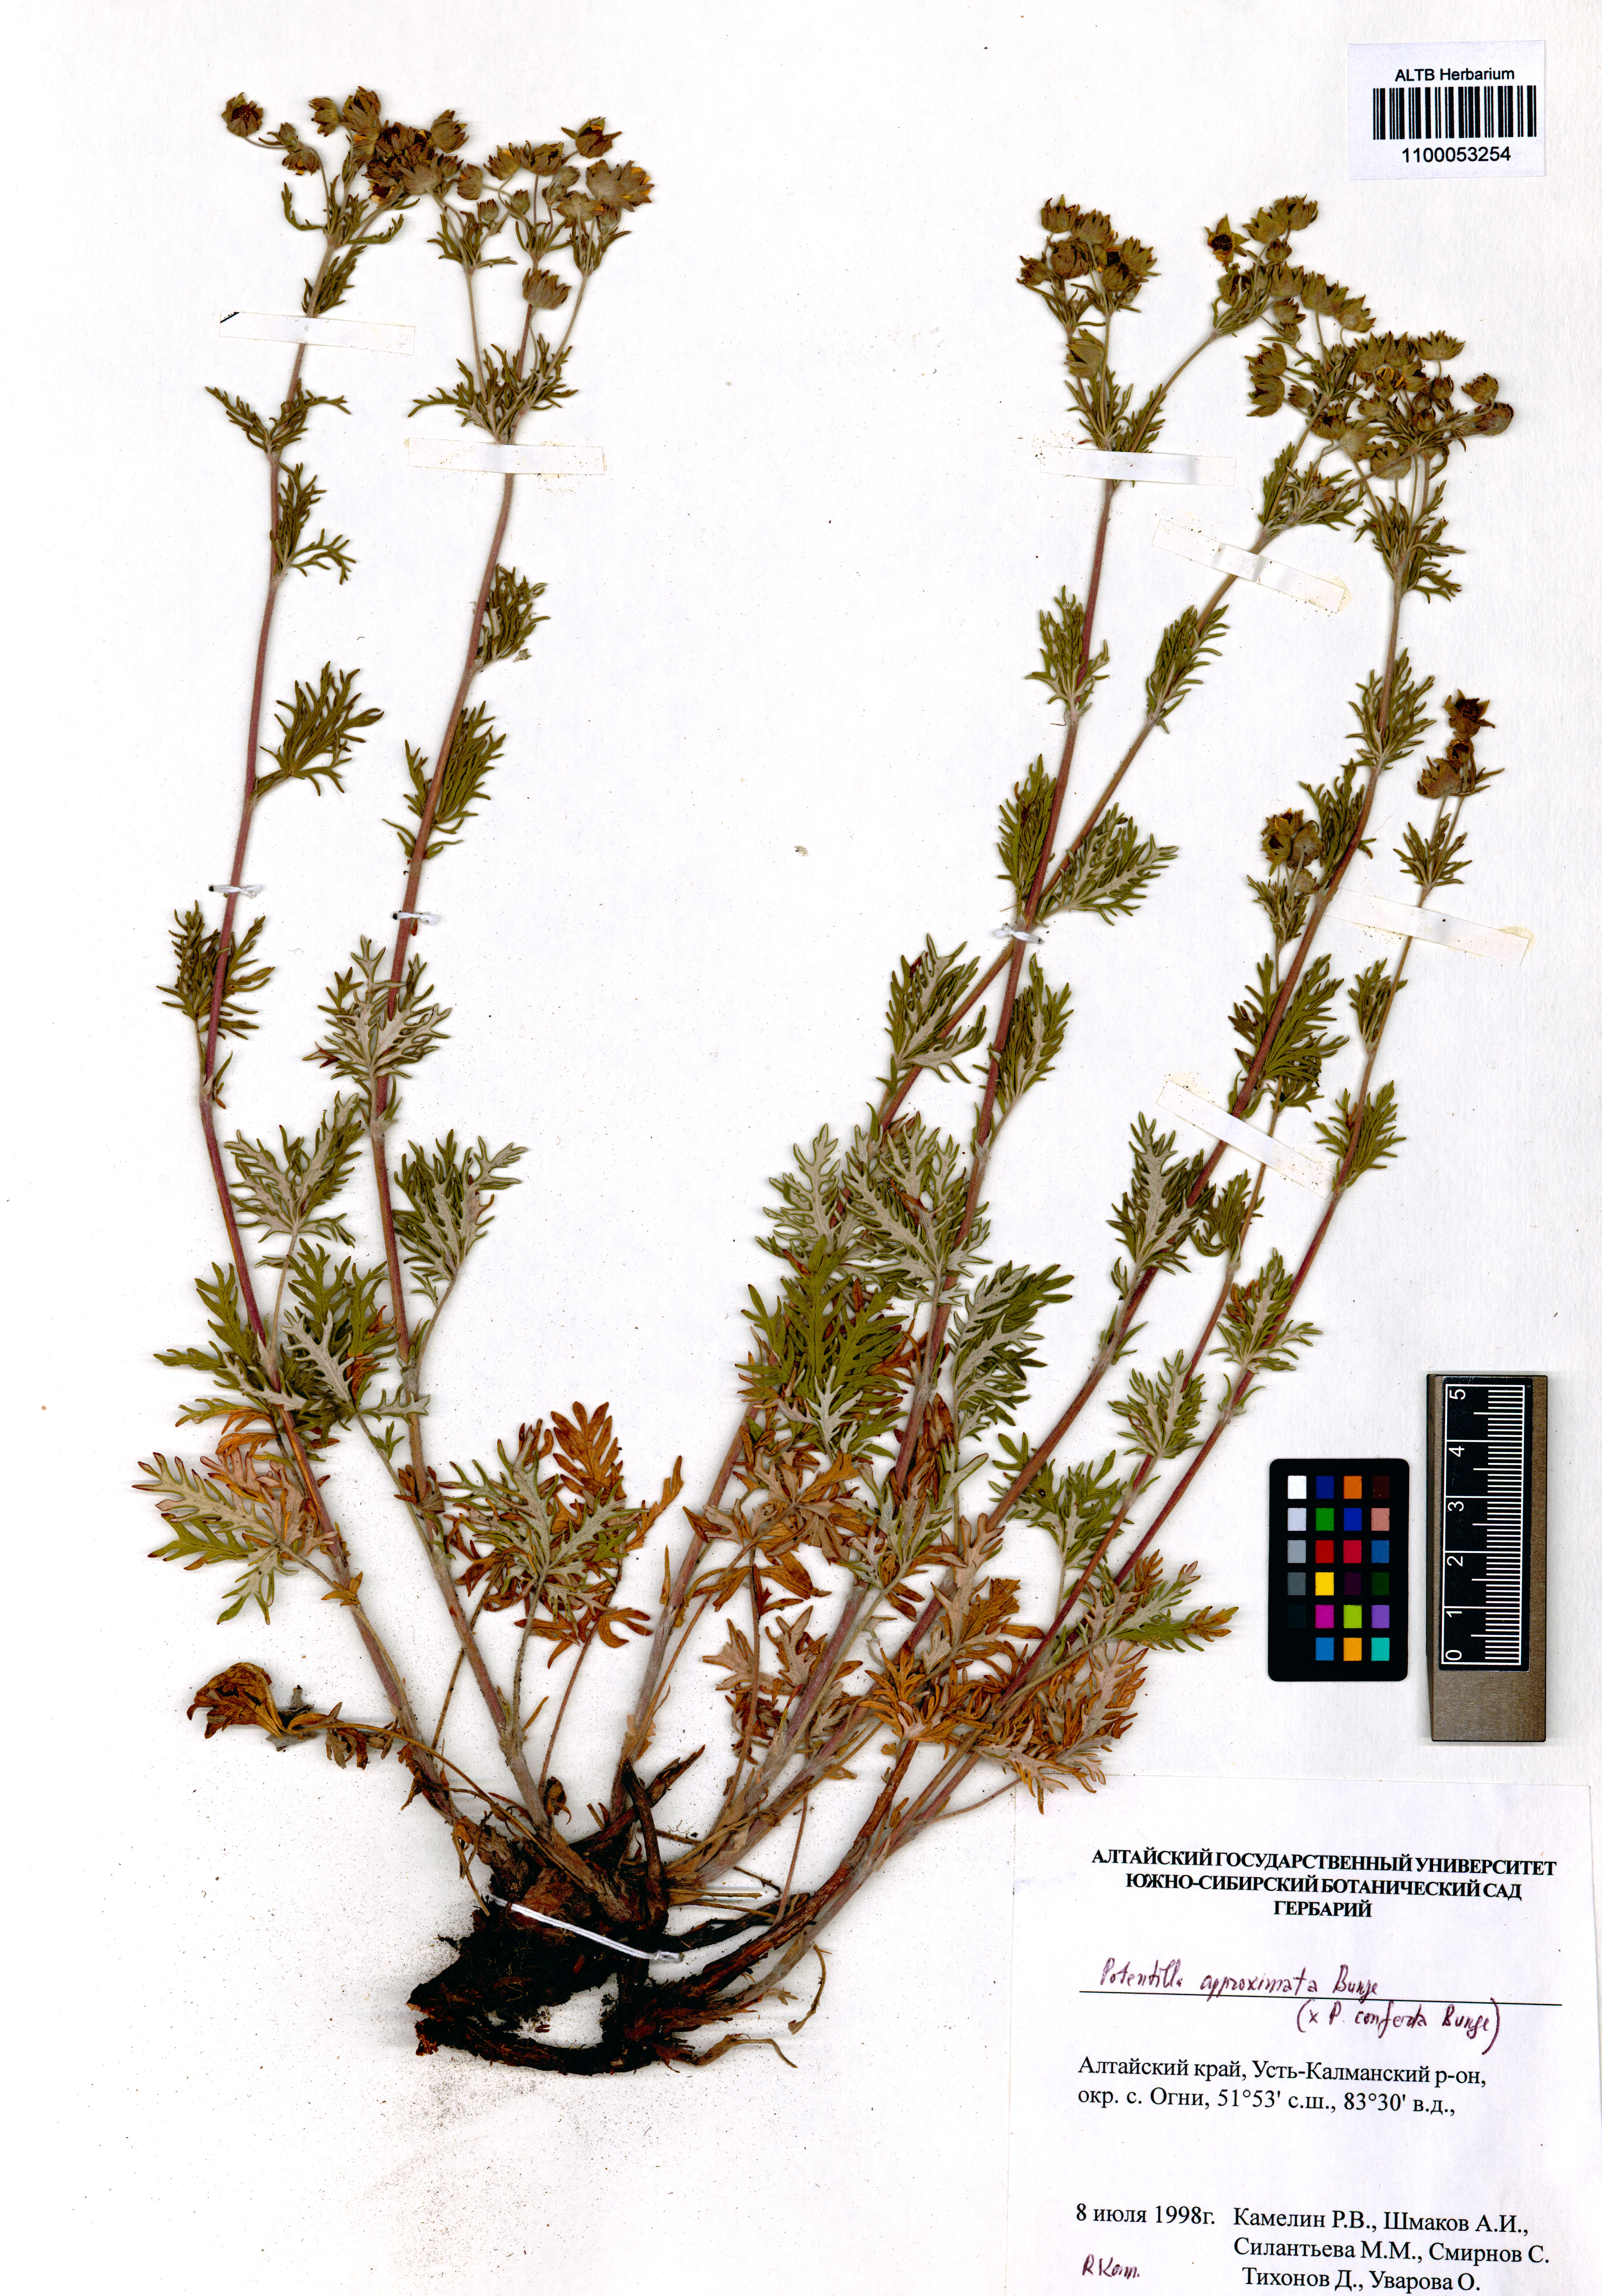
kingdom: Plantae
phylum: Tracheophyta
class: Magnoliopsida
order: Rosales
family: Rosaceae
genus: Potentilla
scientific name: Potentilla conferta
